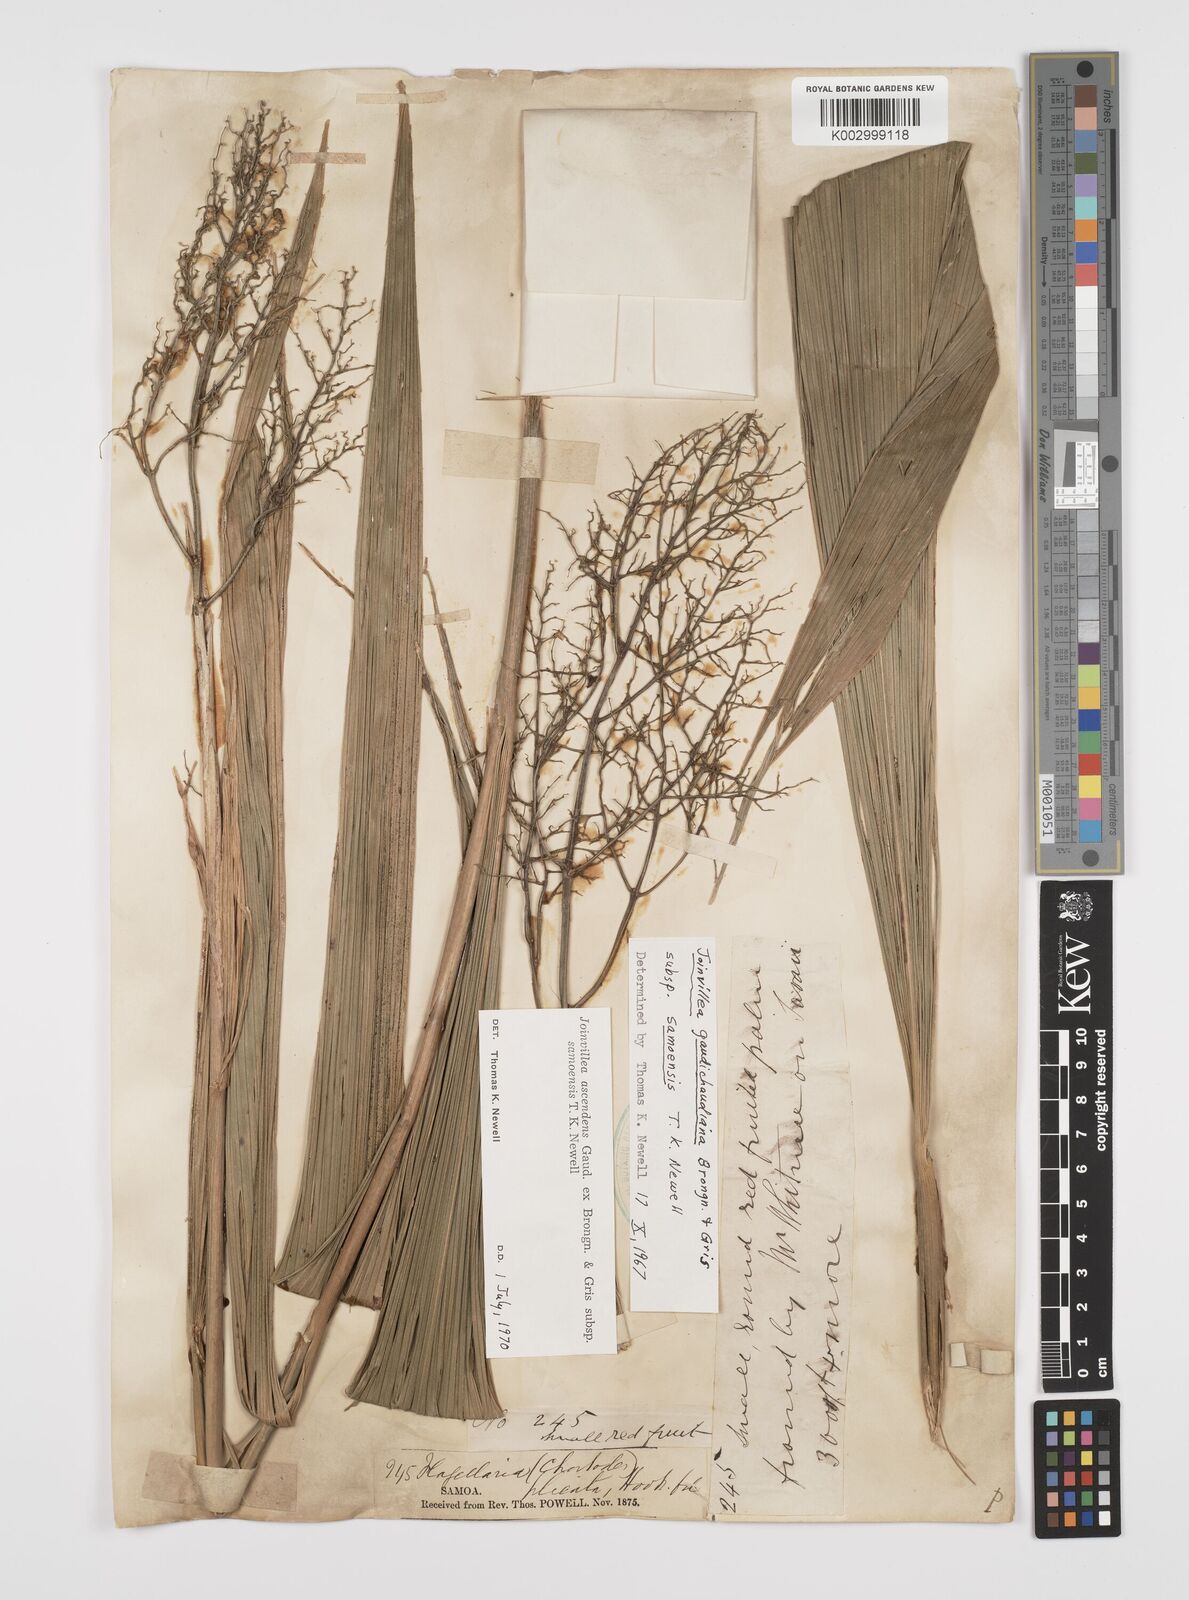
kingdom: Plantae
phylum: Tracheophyta
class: Liliopsida
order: Poales
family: Joinvilleaceae
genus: Joinvillea
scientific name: Joinvillea ascendens
